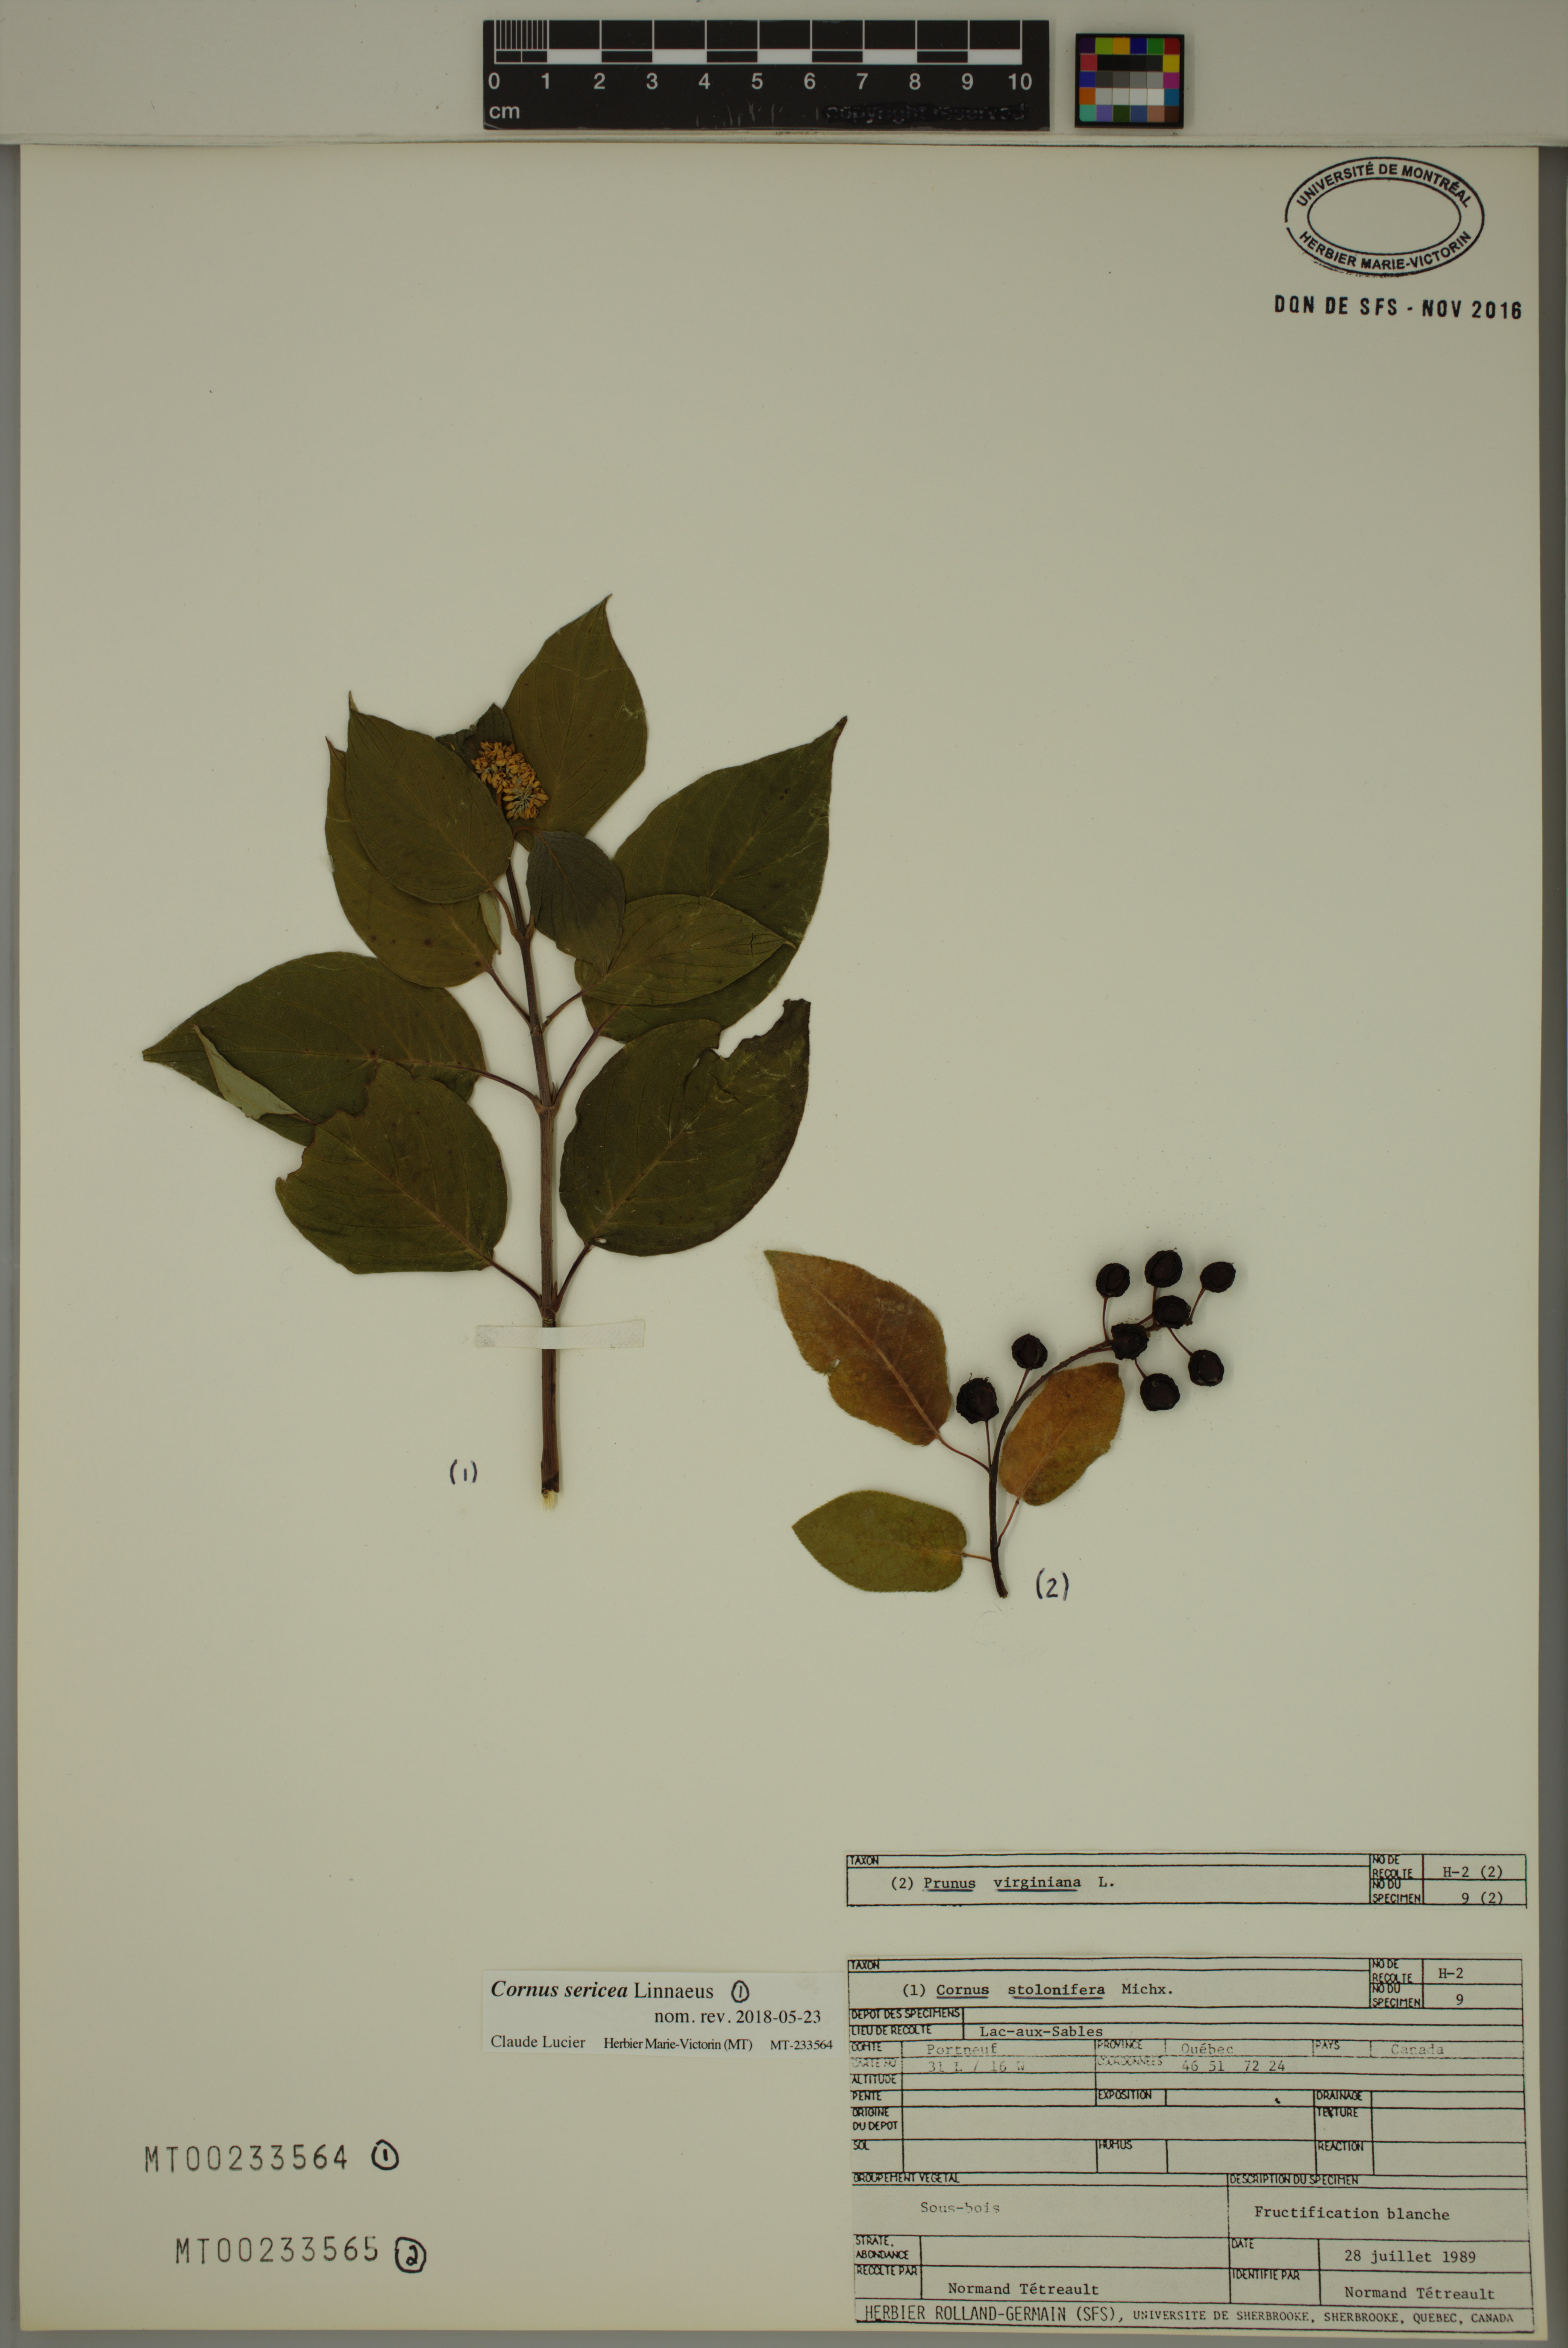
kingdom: Plantae
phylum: Tracheophyta
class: Magnoliopsida
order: Rosales
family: Rosaceae
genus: Prunus
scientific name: Prunus virginiana
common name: Chokecherry
